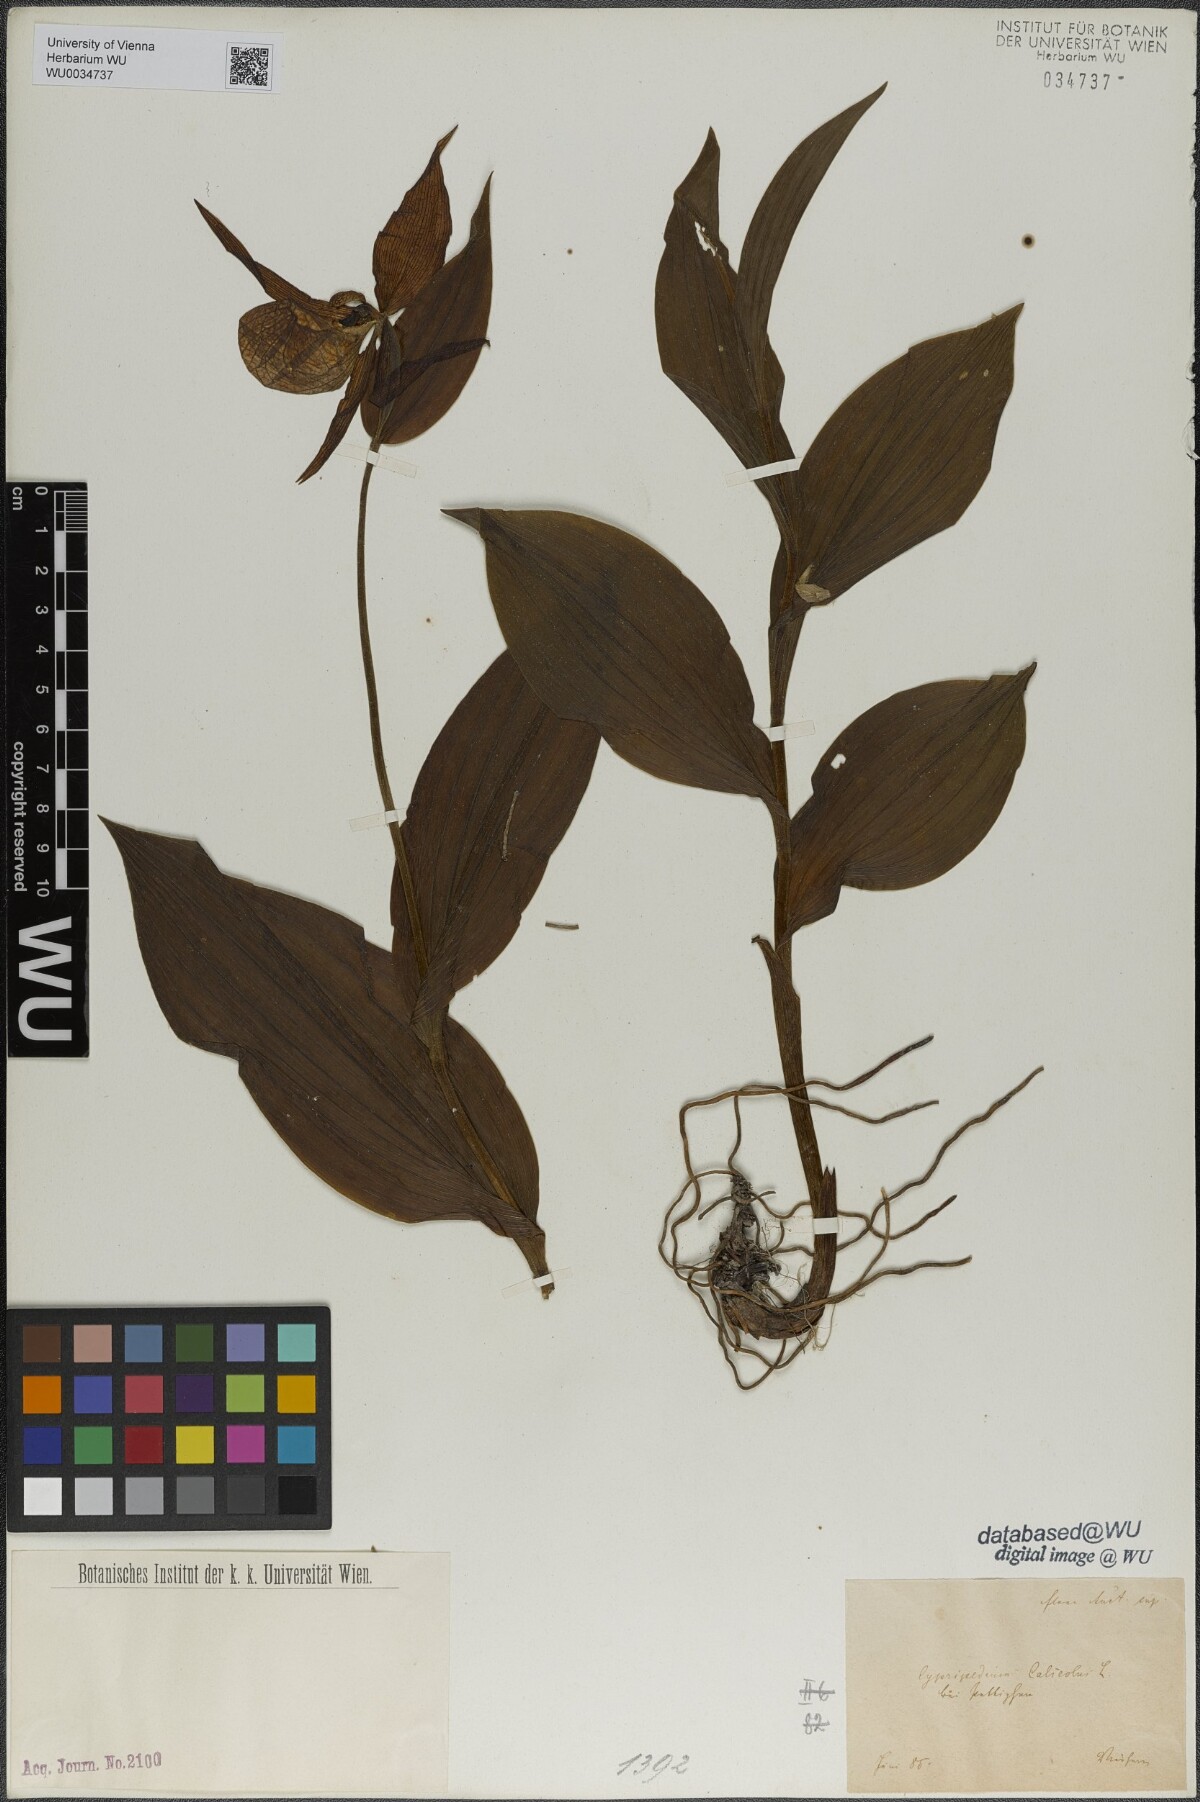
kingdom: Plantae
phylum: Tracheophyta
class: Liliopsida
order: Asparagales
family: Orchidaceae
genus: Cypripedium
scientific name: Cypripedium calceolus
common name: Lady's-slipper
